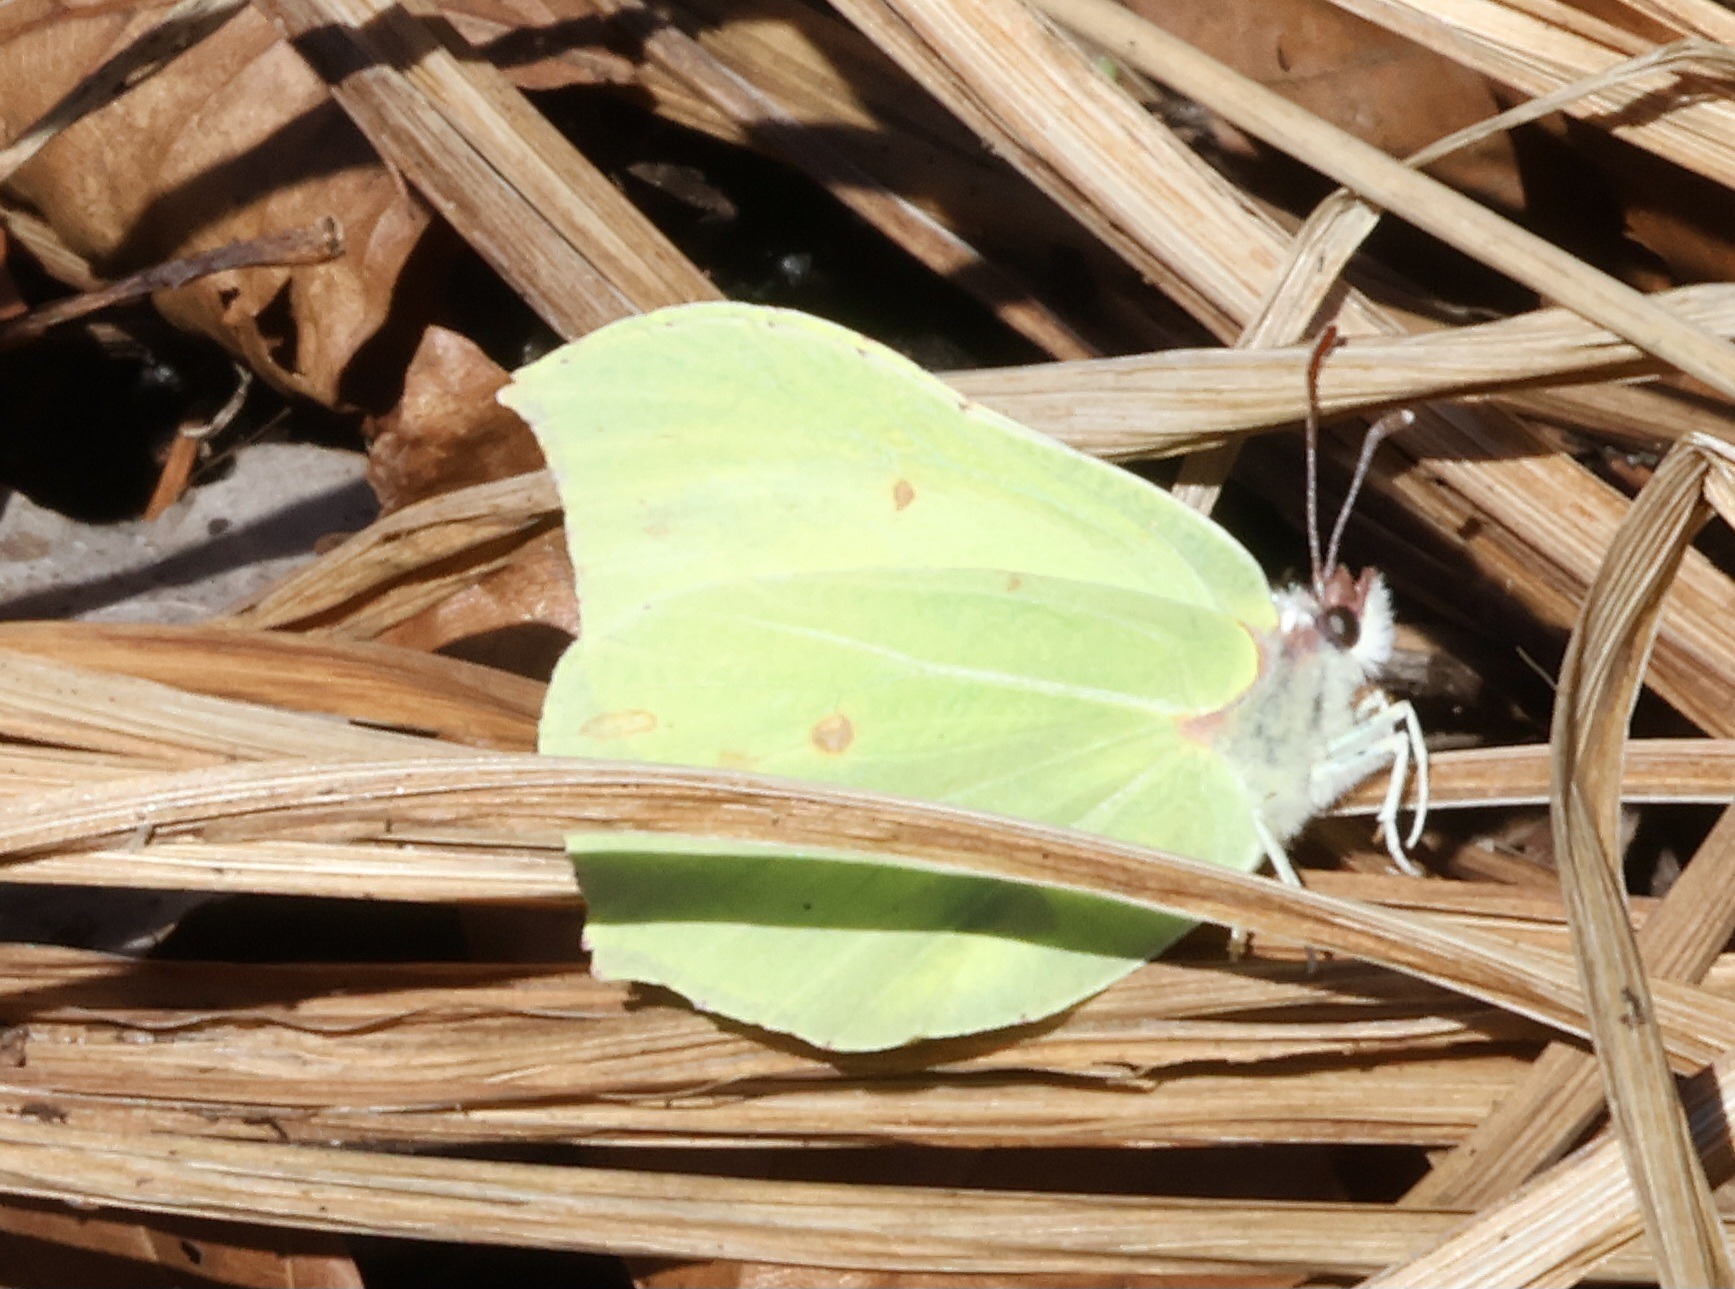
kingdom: Animalia
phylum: Arthropoda
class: Insecta
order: Lepidoptera
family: Pieridae
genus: Gonepteryx
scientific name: Gonepteryx rhamni
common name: Citronsommerfugl
